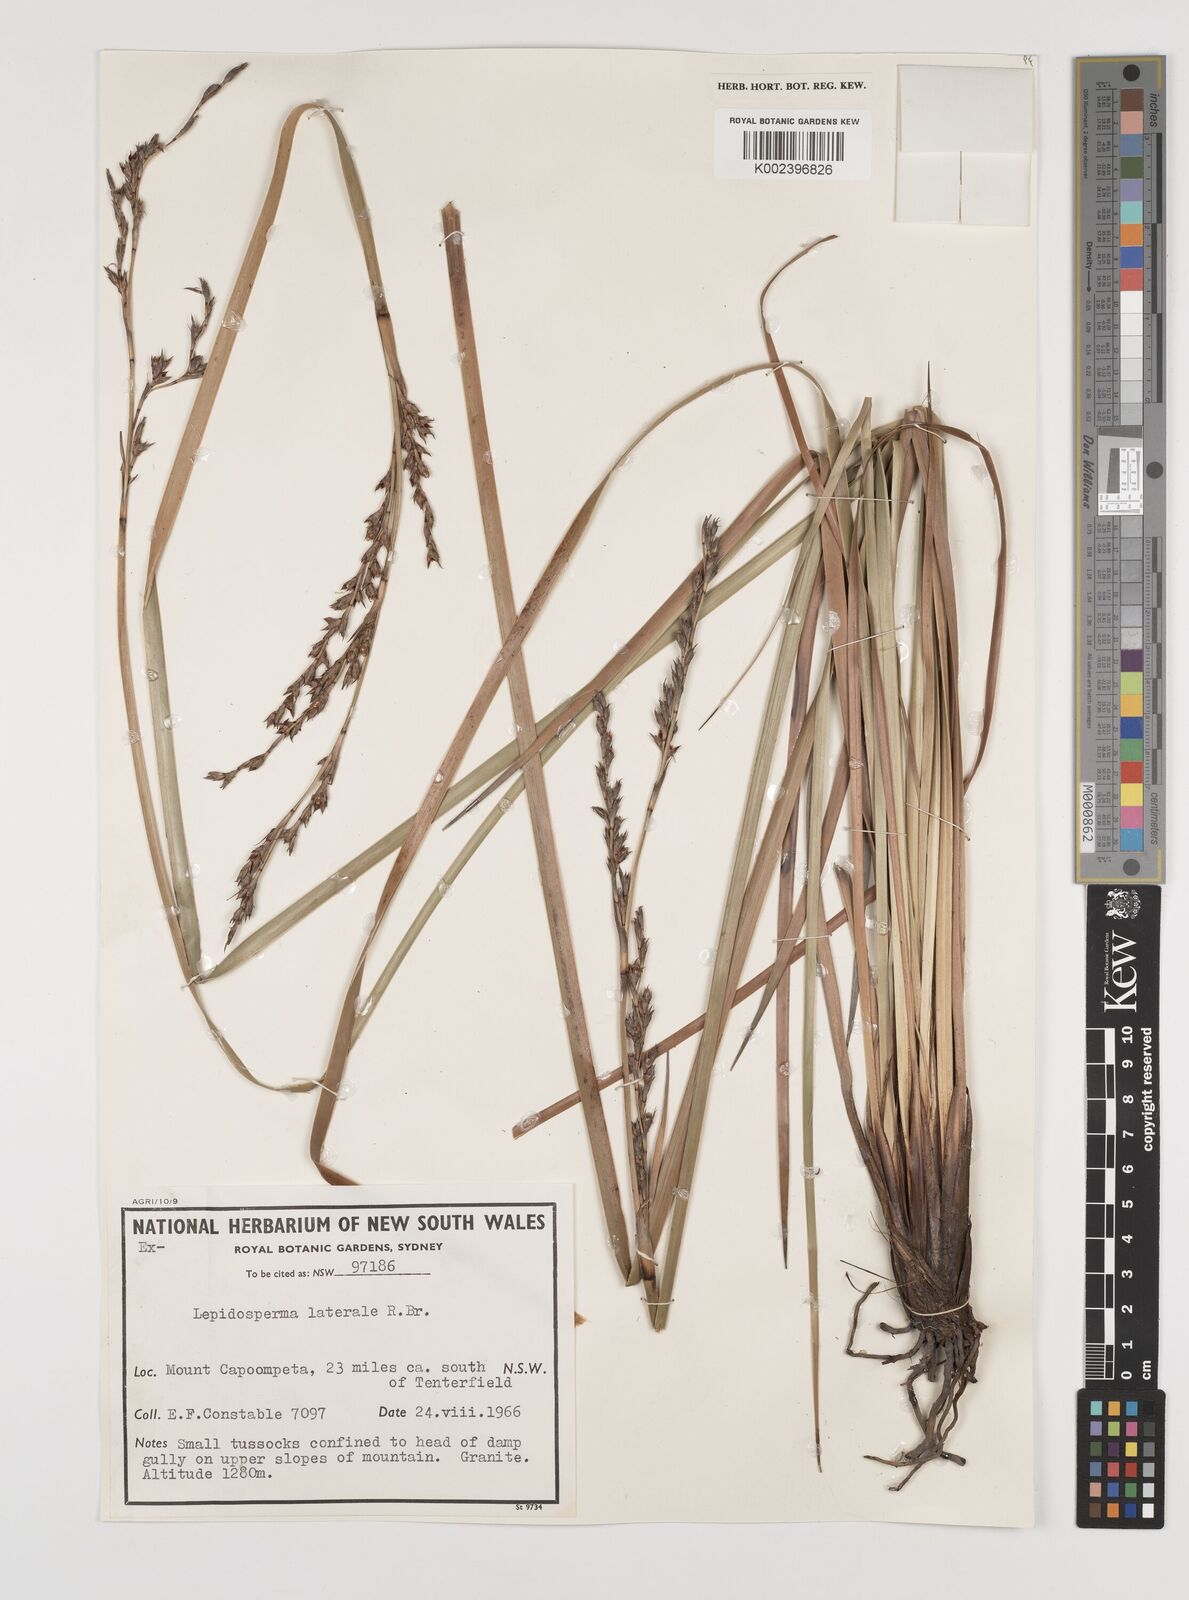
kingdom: Plantae
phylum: Tracheophyta
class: Liliopsida
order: Poales
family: Cyperaceae
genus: Lepidosperma
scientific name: Lepidosperma laterale
